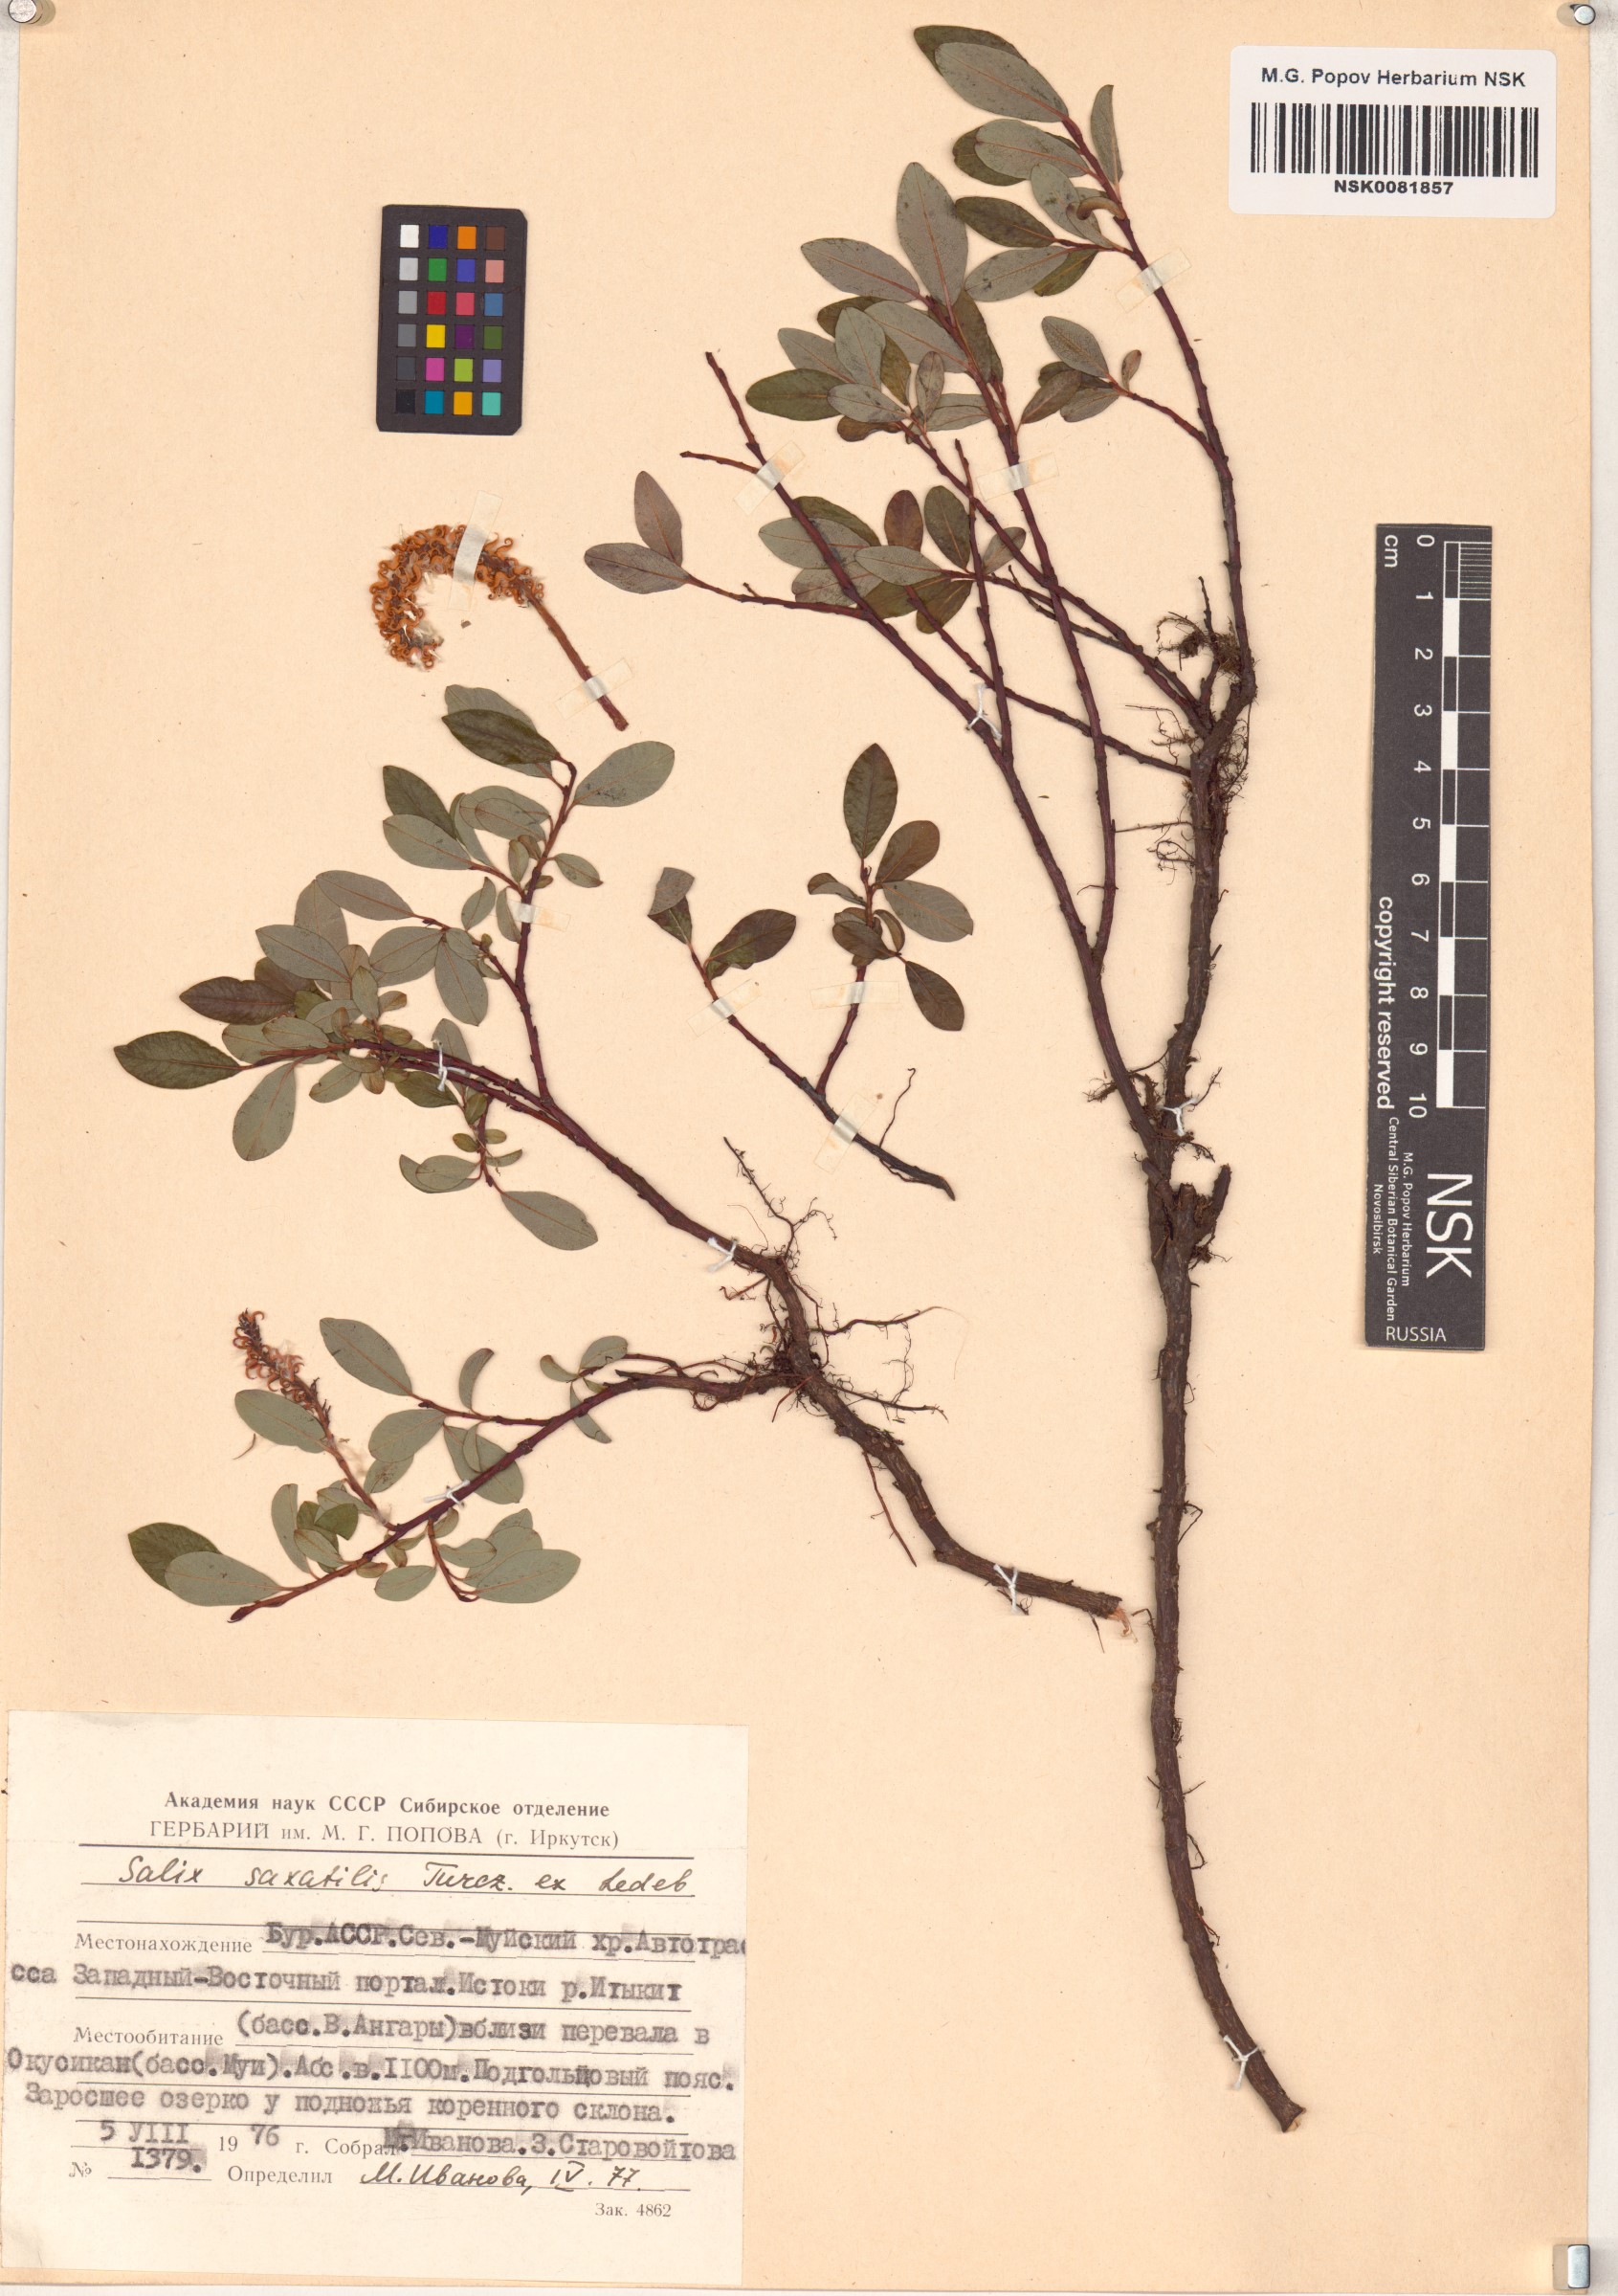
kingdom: Plantae
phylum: Tracheophyta
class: Magnoliopsida
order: Malpighiales
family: Salicaceae
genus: Salix
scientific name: Salix saxatilis
